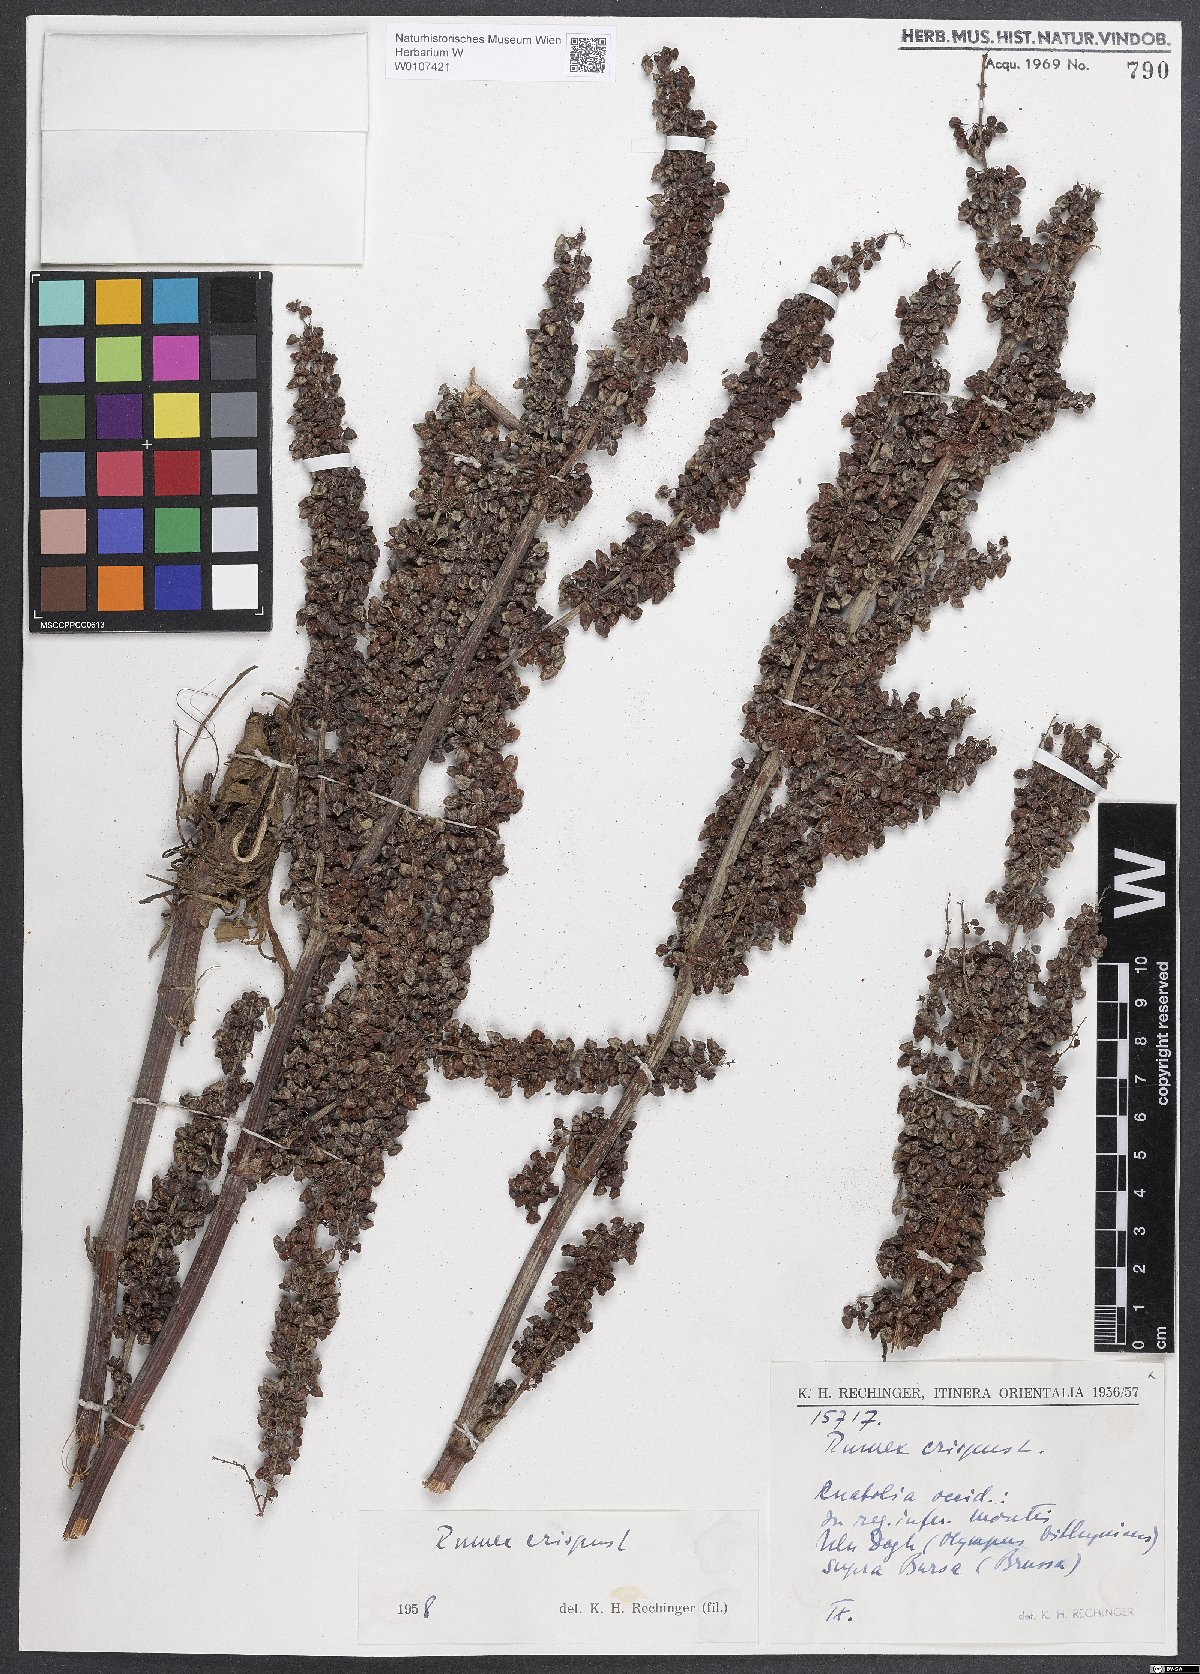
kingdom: Plantae
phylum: Tracheophyta
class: Magnoliopsida
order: Caryophyllales
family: Polygonaceae
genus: Rumex
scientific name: Rumex crispus
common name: Curled dock
